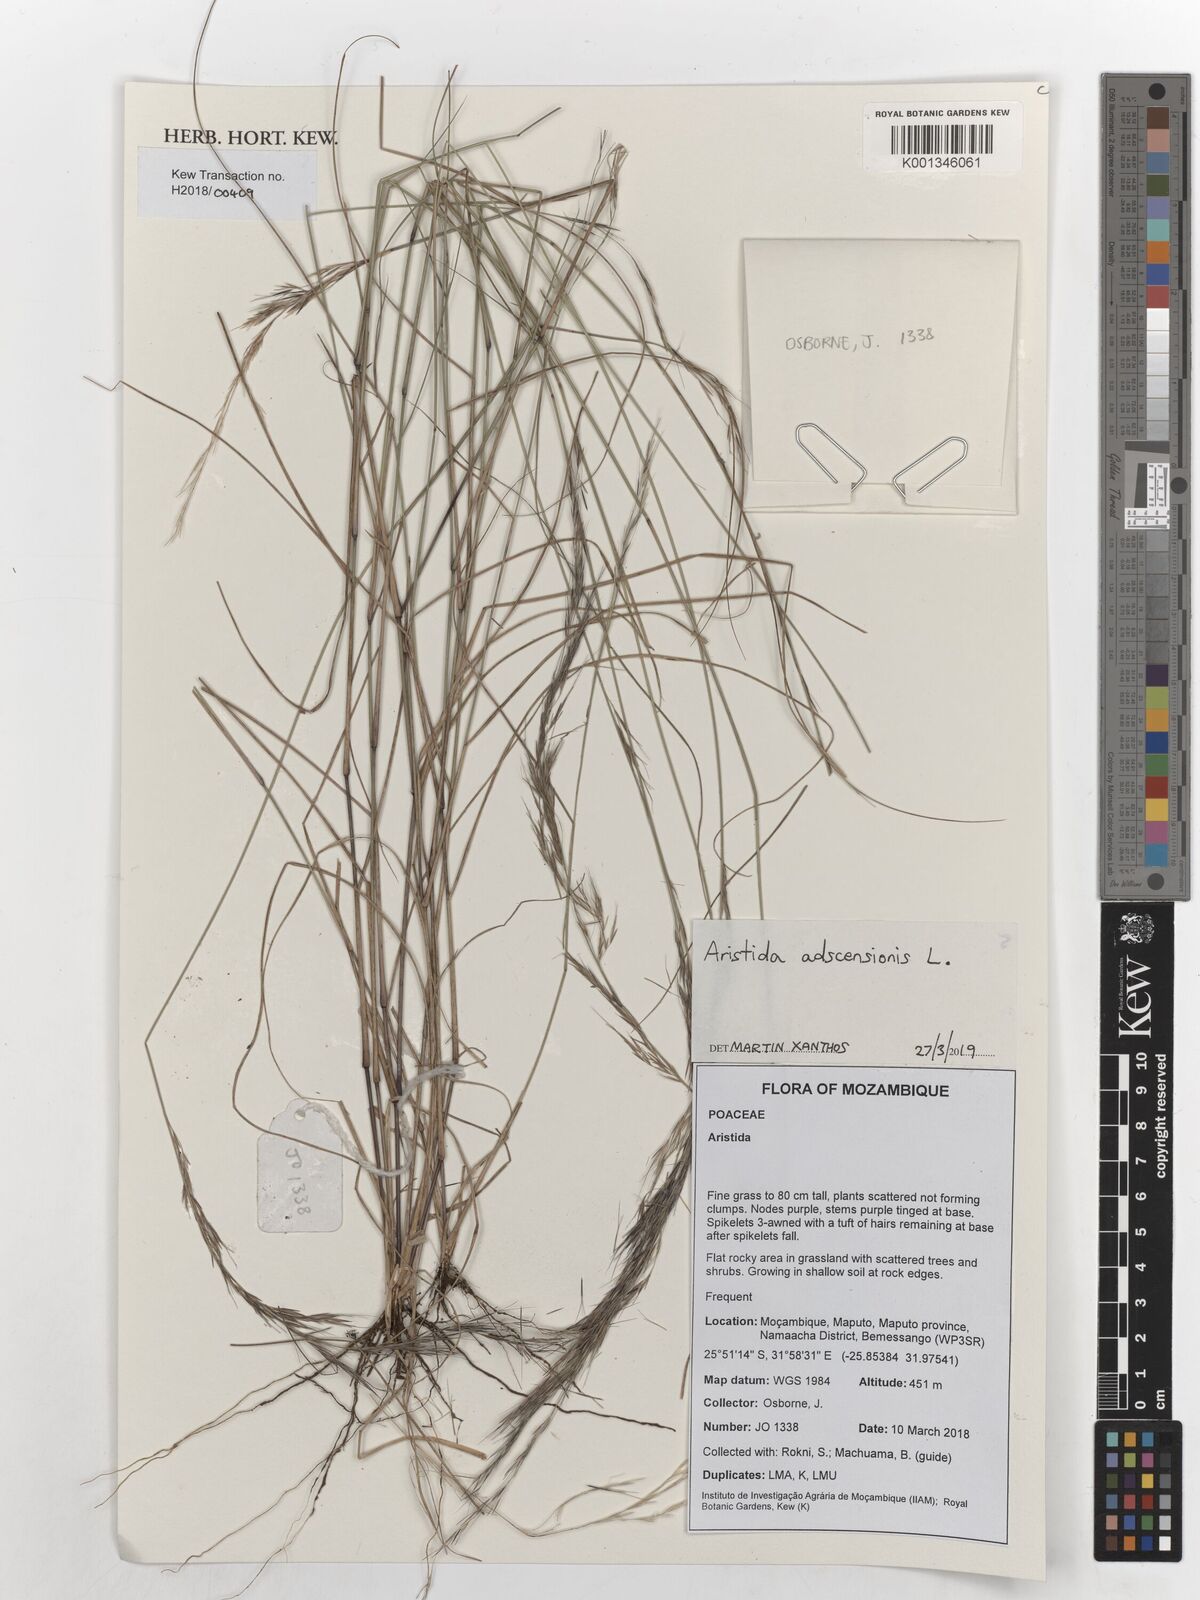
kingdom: Plantae
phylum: Tracheophyta
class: Liliopsida
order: Poales
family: Poaceae
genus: Aristida
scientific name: Aristida adscensionis
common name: Sixweeks threeawn
